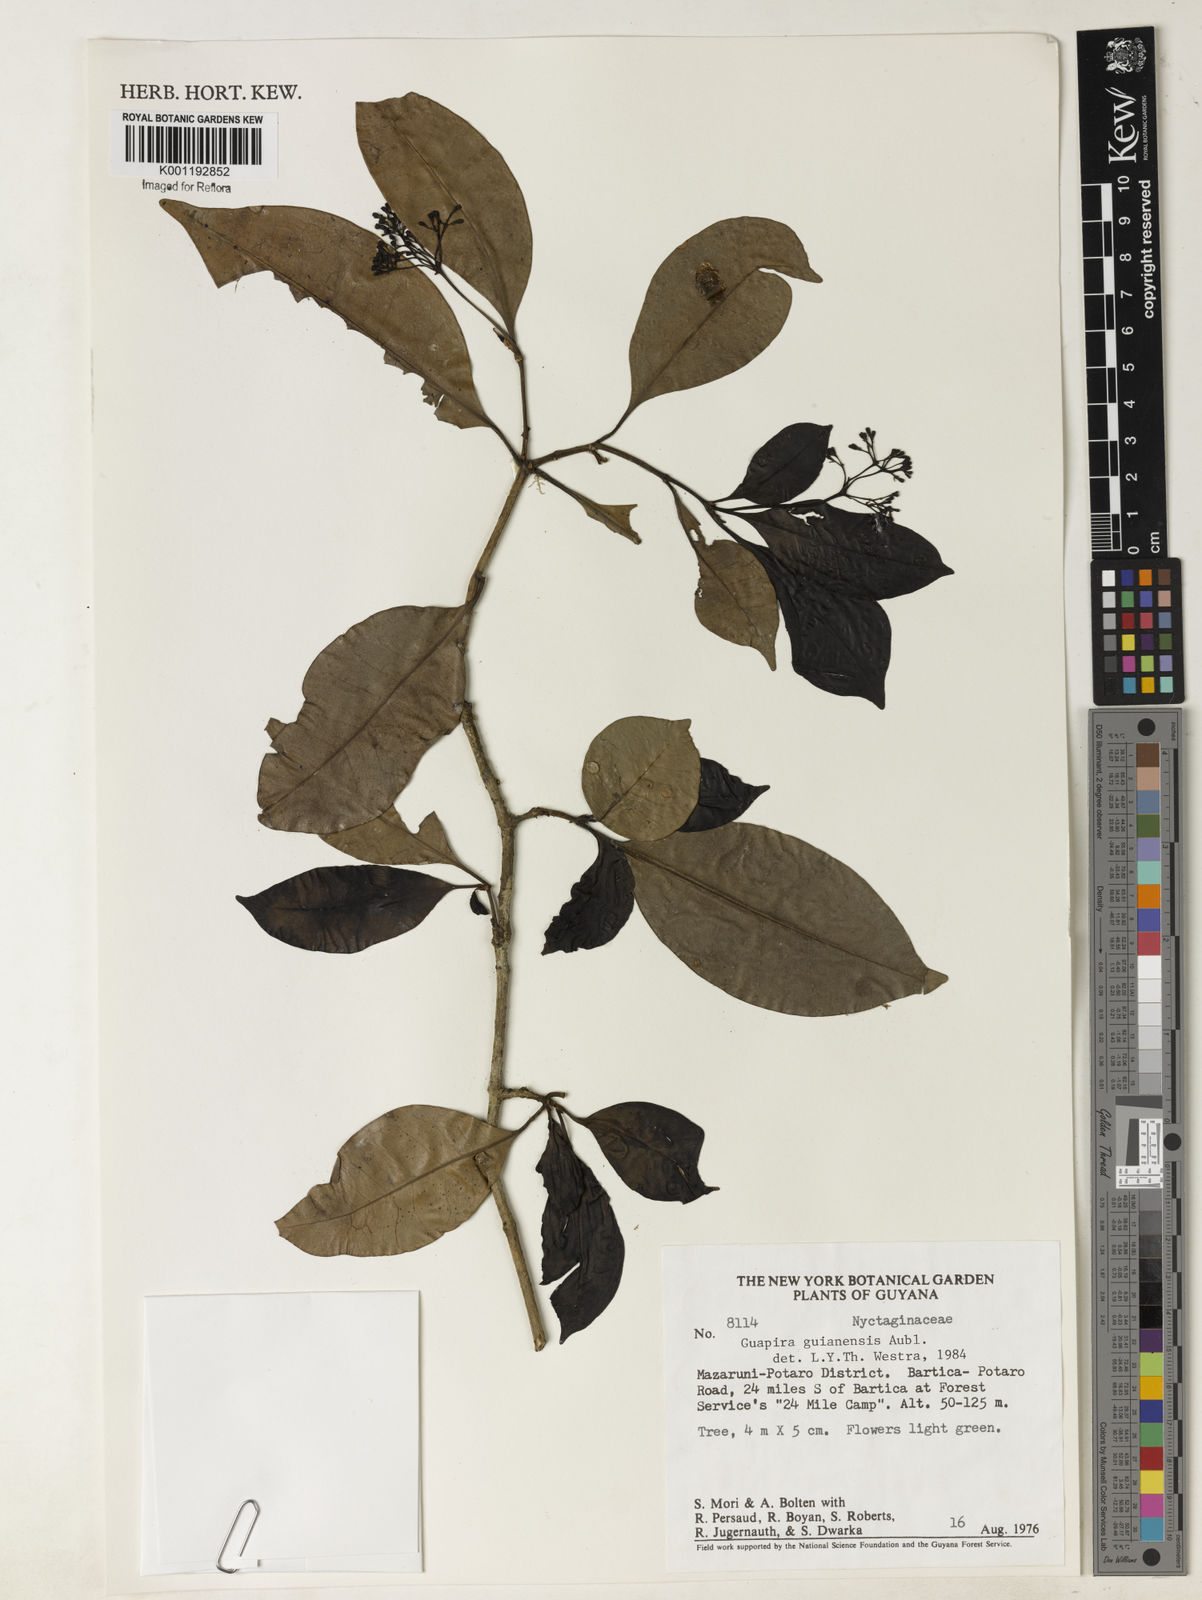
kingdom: Plantae
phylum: Tracheophyta
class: Magnoliopsida
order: Caryophyllales
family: Nyctaginaceae
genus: Guapira
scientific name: Guapira guianensis
